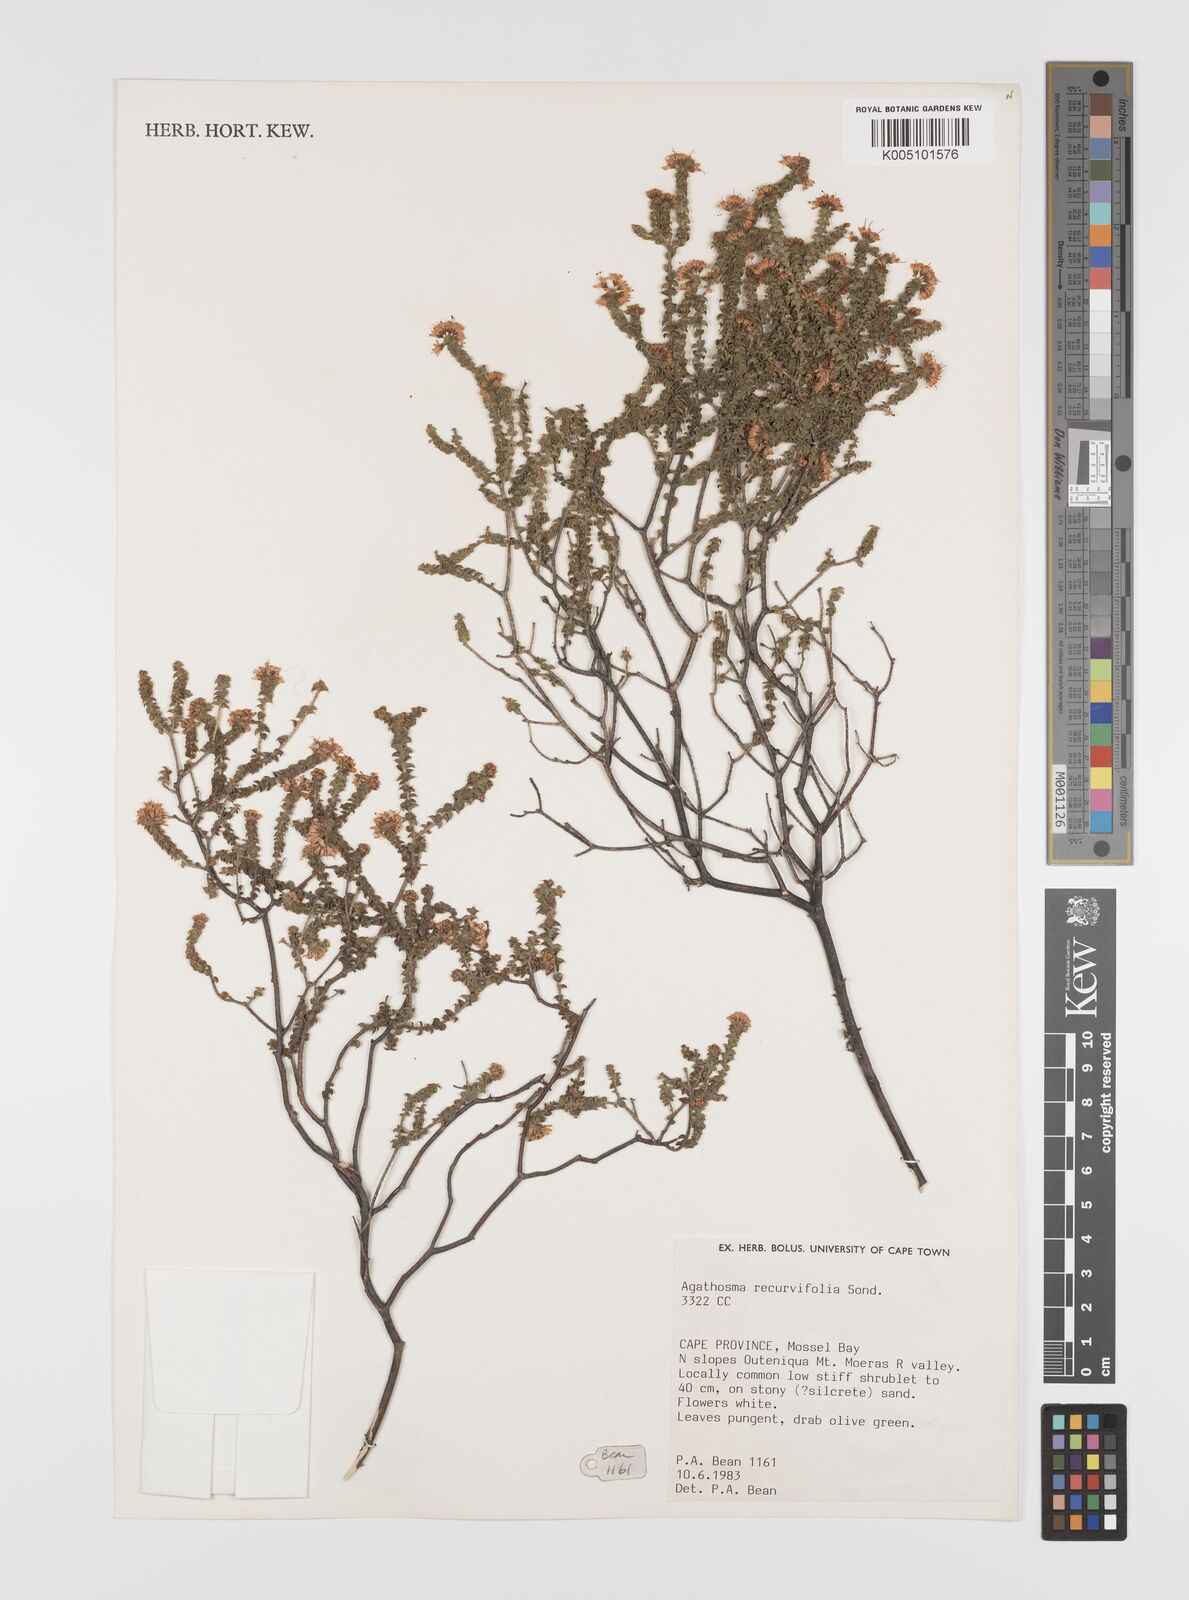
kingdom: Plantae
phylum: Tracheophyta
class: Magnoliopsida
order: Sapindales
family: Rutaceae
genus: Agathosma
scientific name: Agathosma recurvifolia
